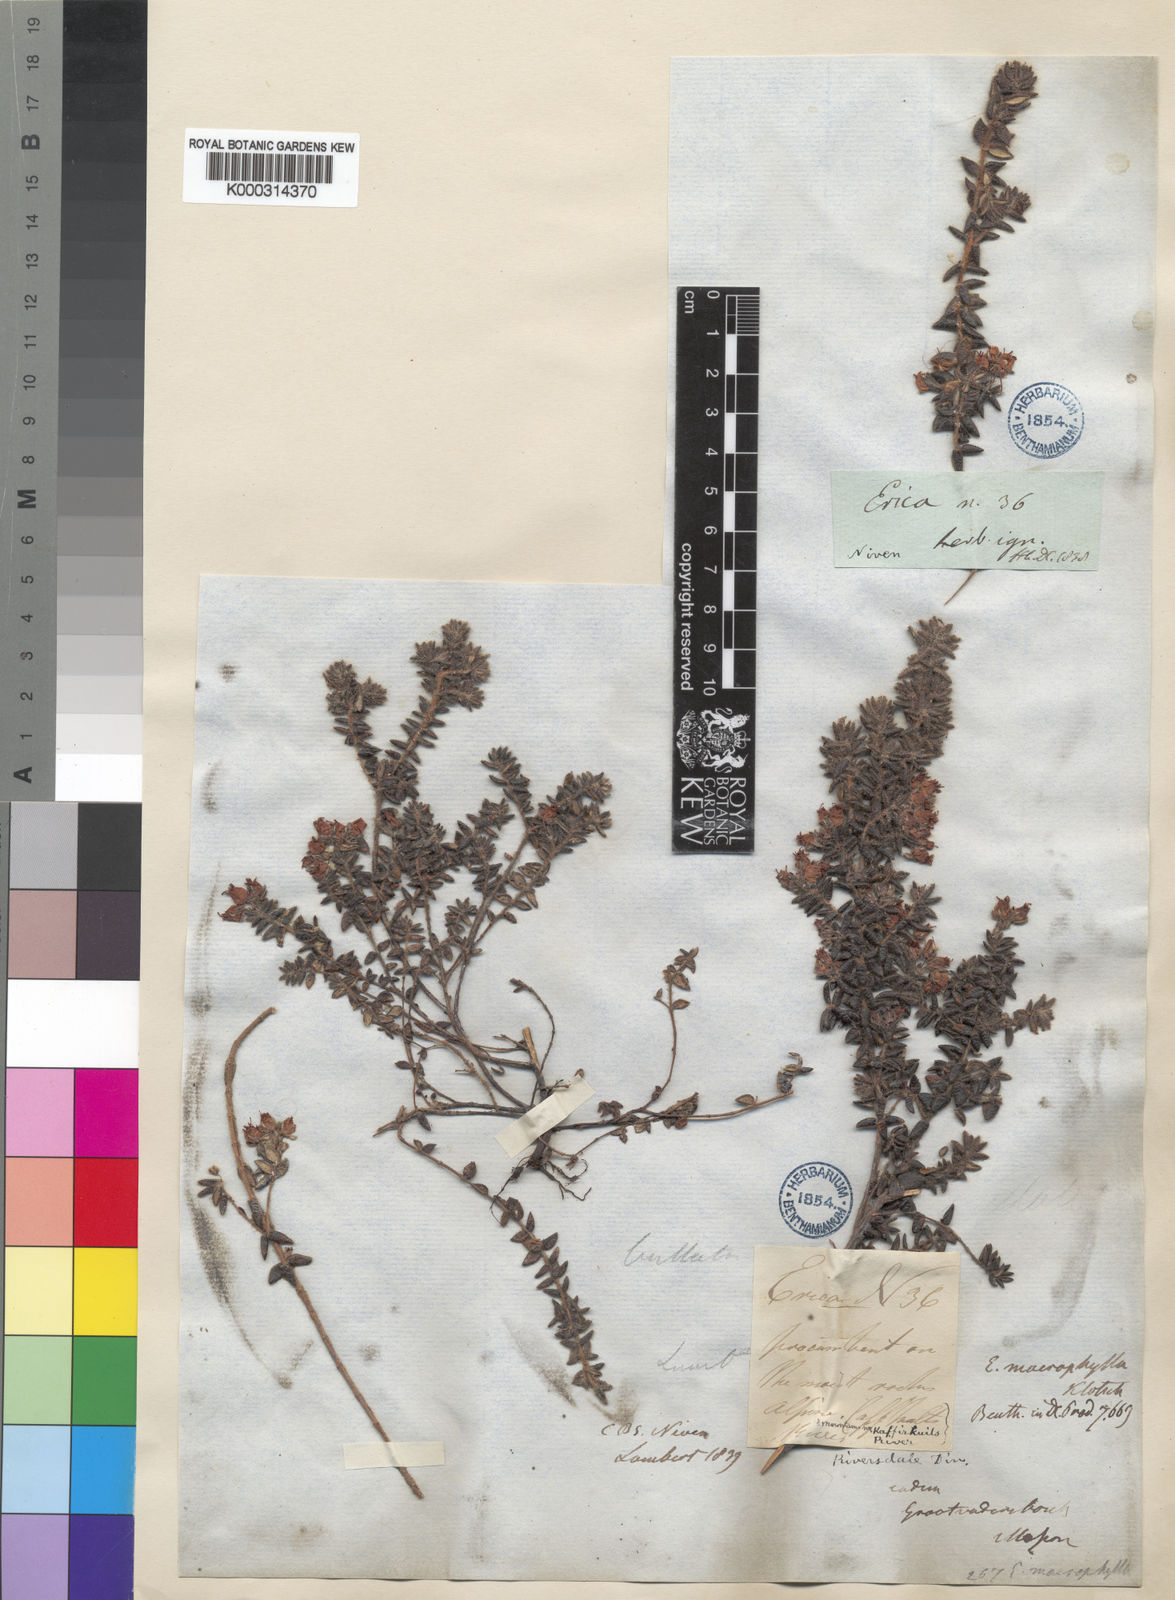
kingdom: Plantae
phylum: Tracheophyta
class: Magnoliopsida
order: Ericales
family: Ericaceae
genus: Erica
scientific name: Erica macrophylla
